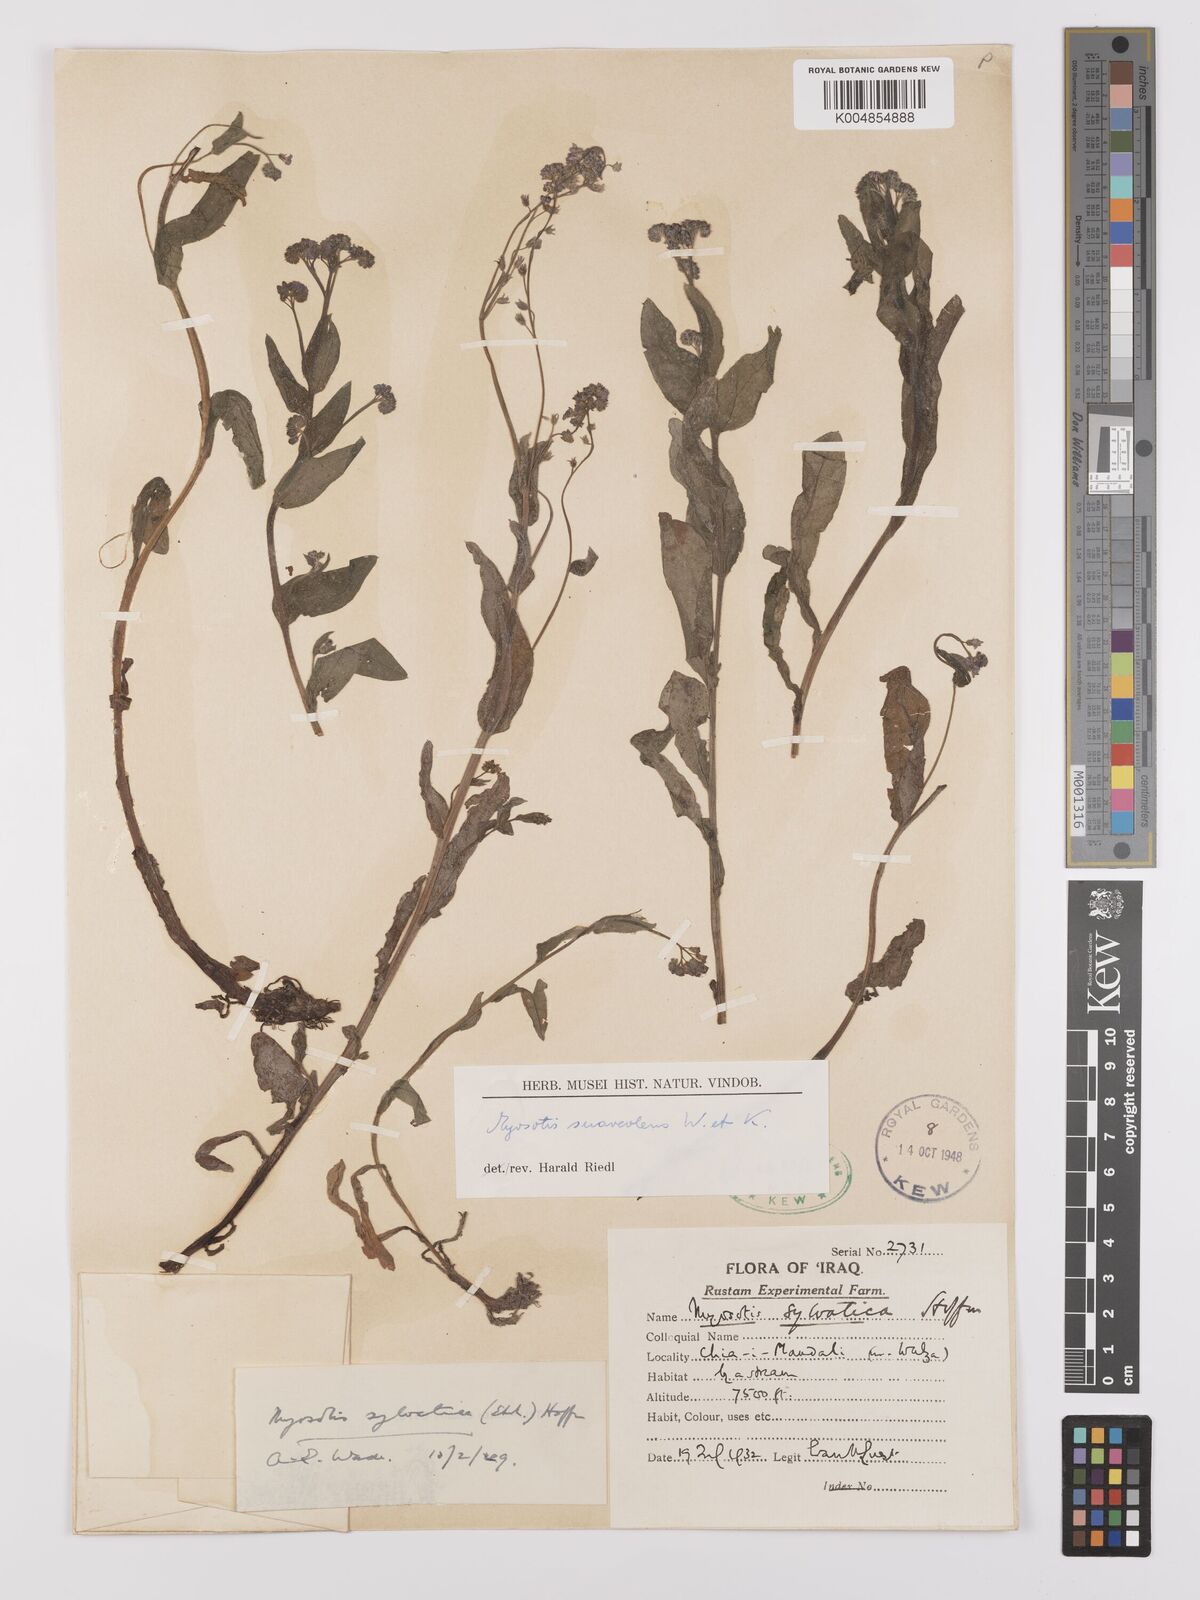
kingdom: Plantae
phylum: Tracheophyta
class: Magnoliopsida
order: Boraginales
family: Boraginaceae
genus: Myosotis
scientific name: Myosotis
